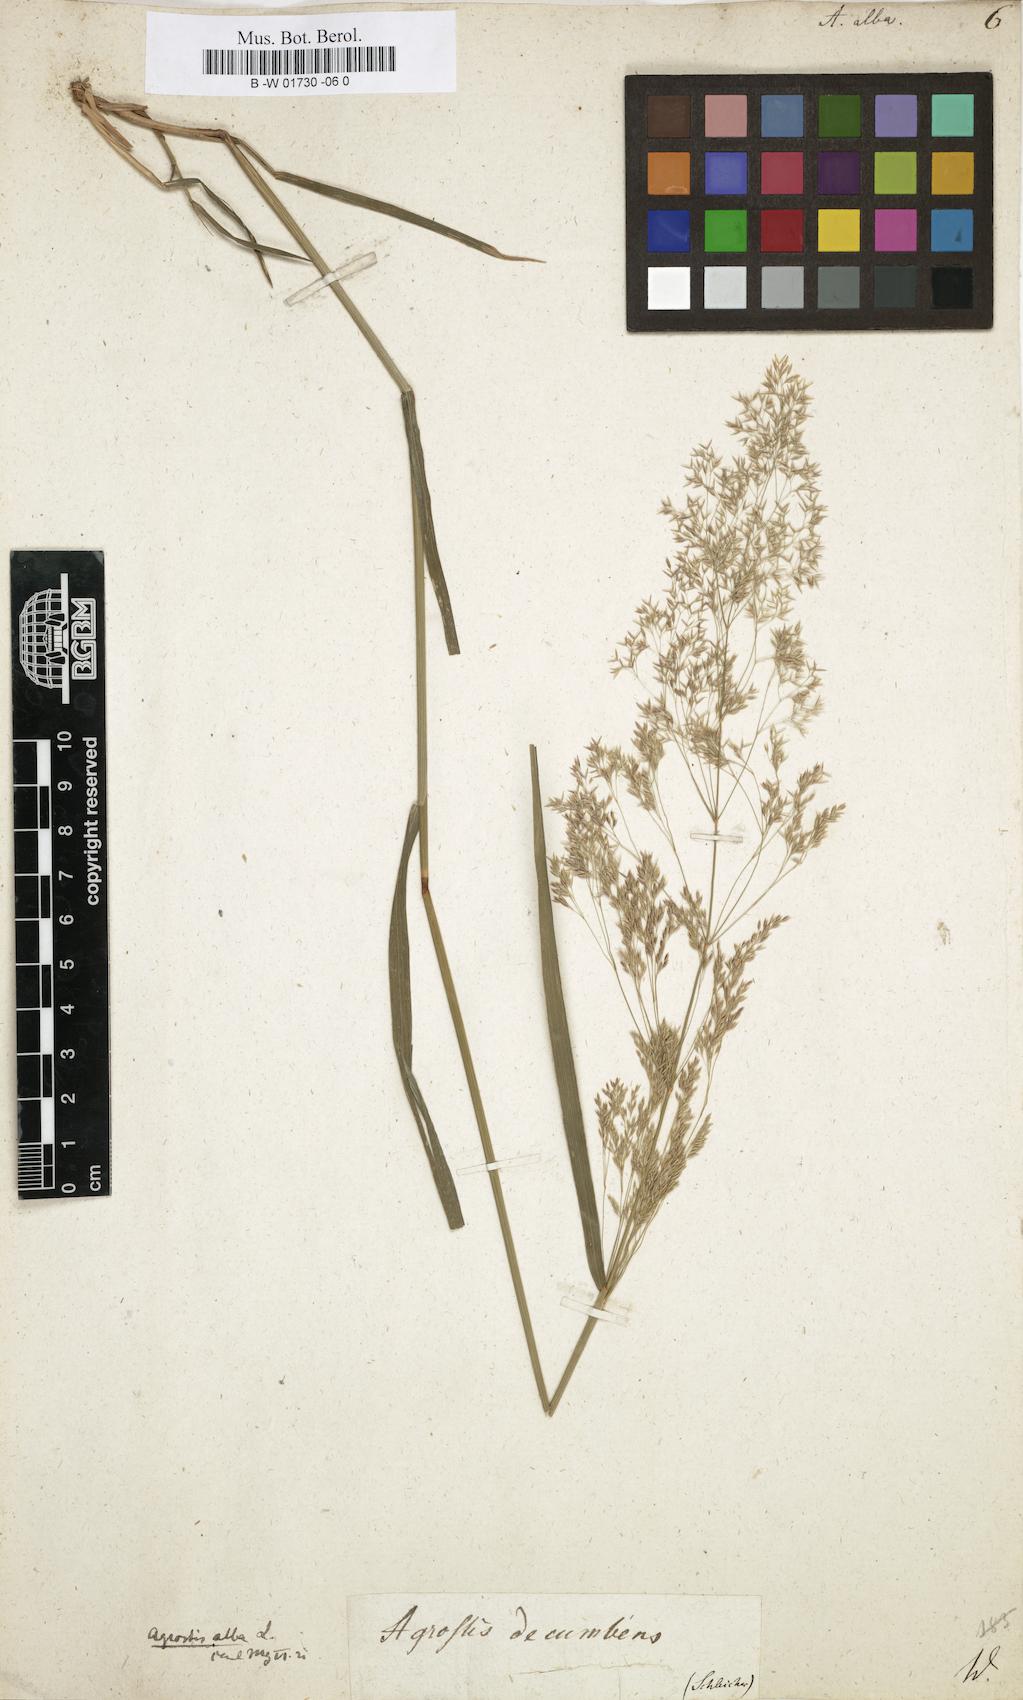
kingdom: Plantae
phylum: Tracheophyta
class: Liliopsida
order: Poales
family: Poaceae
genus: Poa
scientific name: Poa nemoralis
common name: Wood bluegrass
